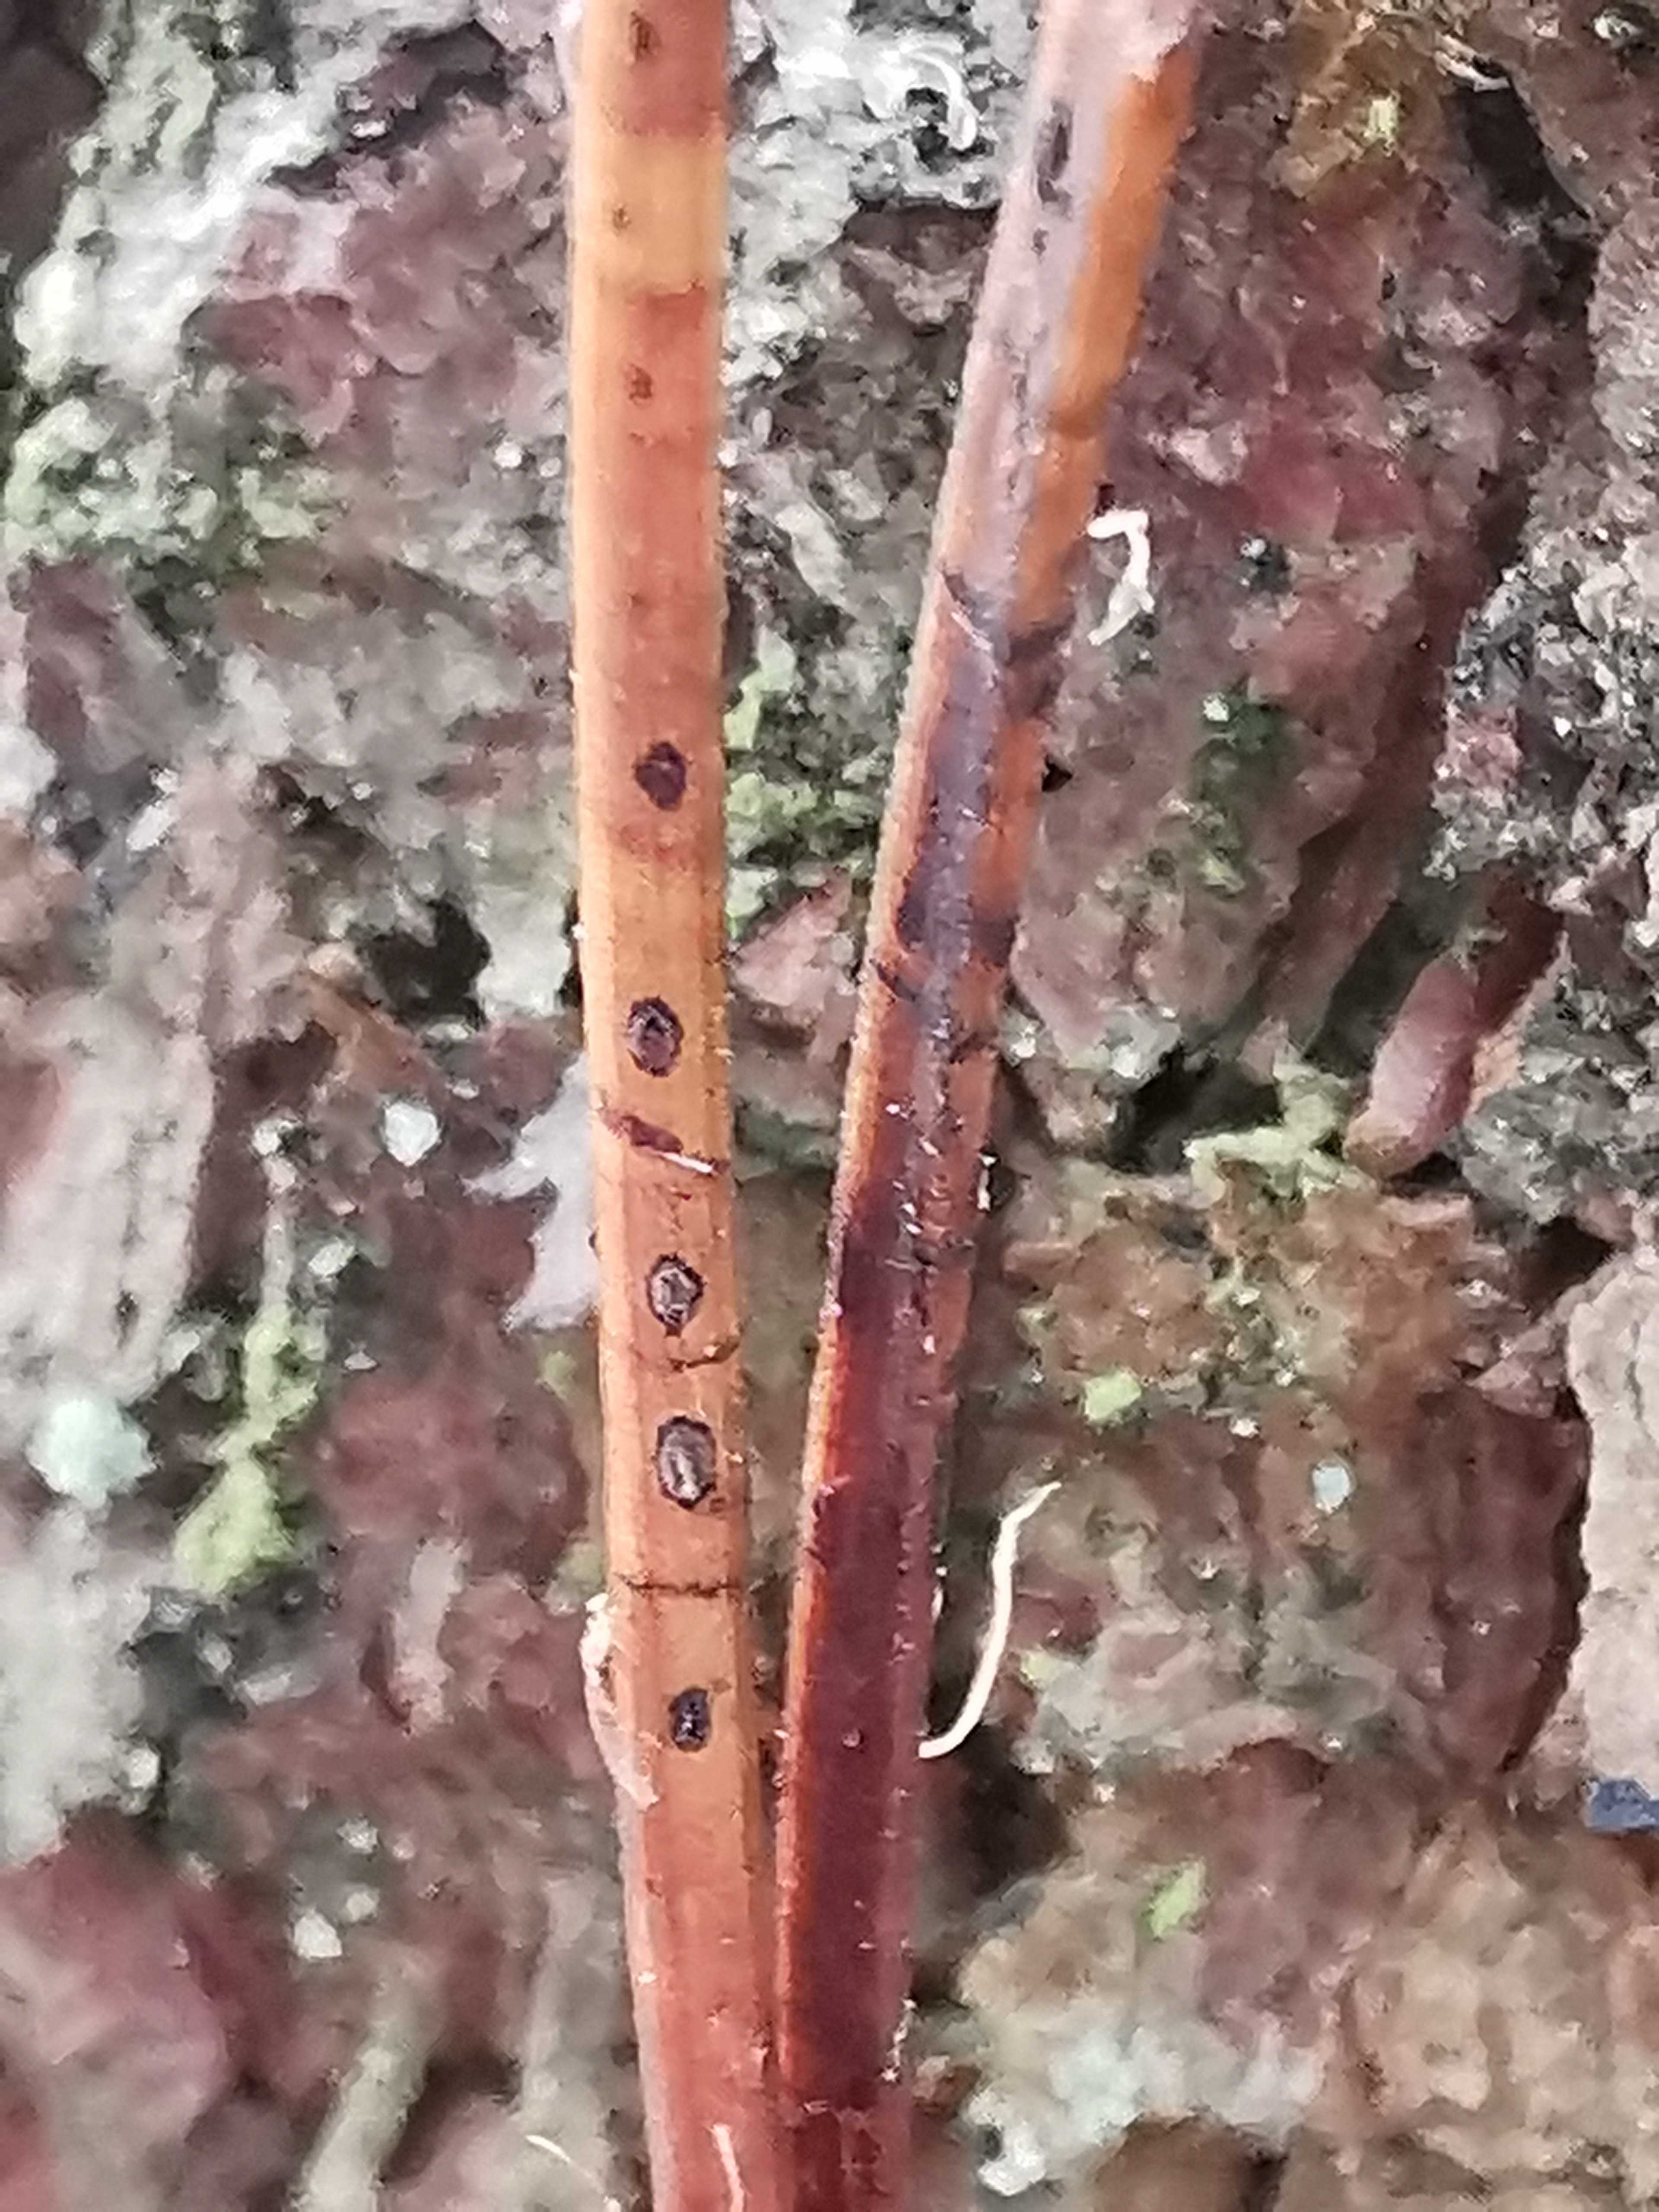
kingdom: Fungi
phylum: Ascomycota
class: Leotiomycetes
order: Rhytismatales
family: Rhytismataceae
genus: Lophodermium
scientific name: Lophodermium pinastri
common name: fyrre-fureplet
